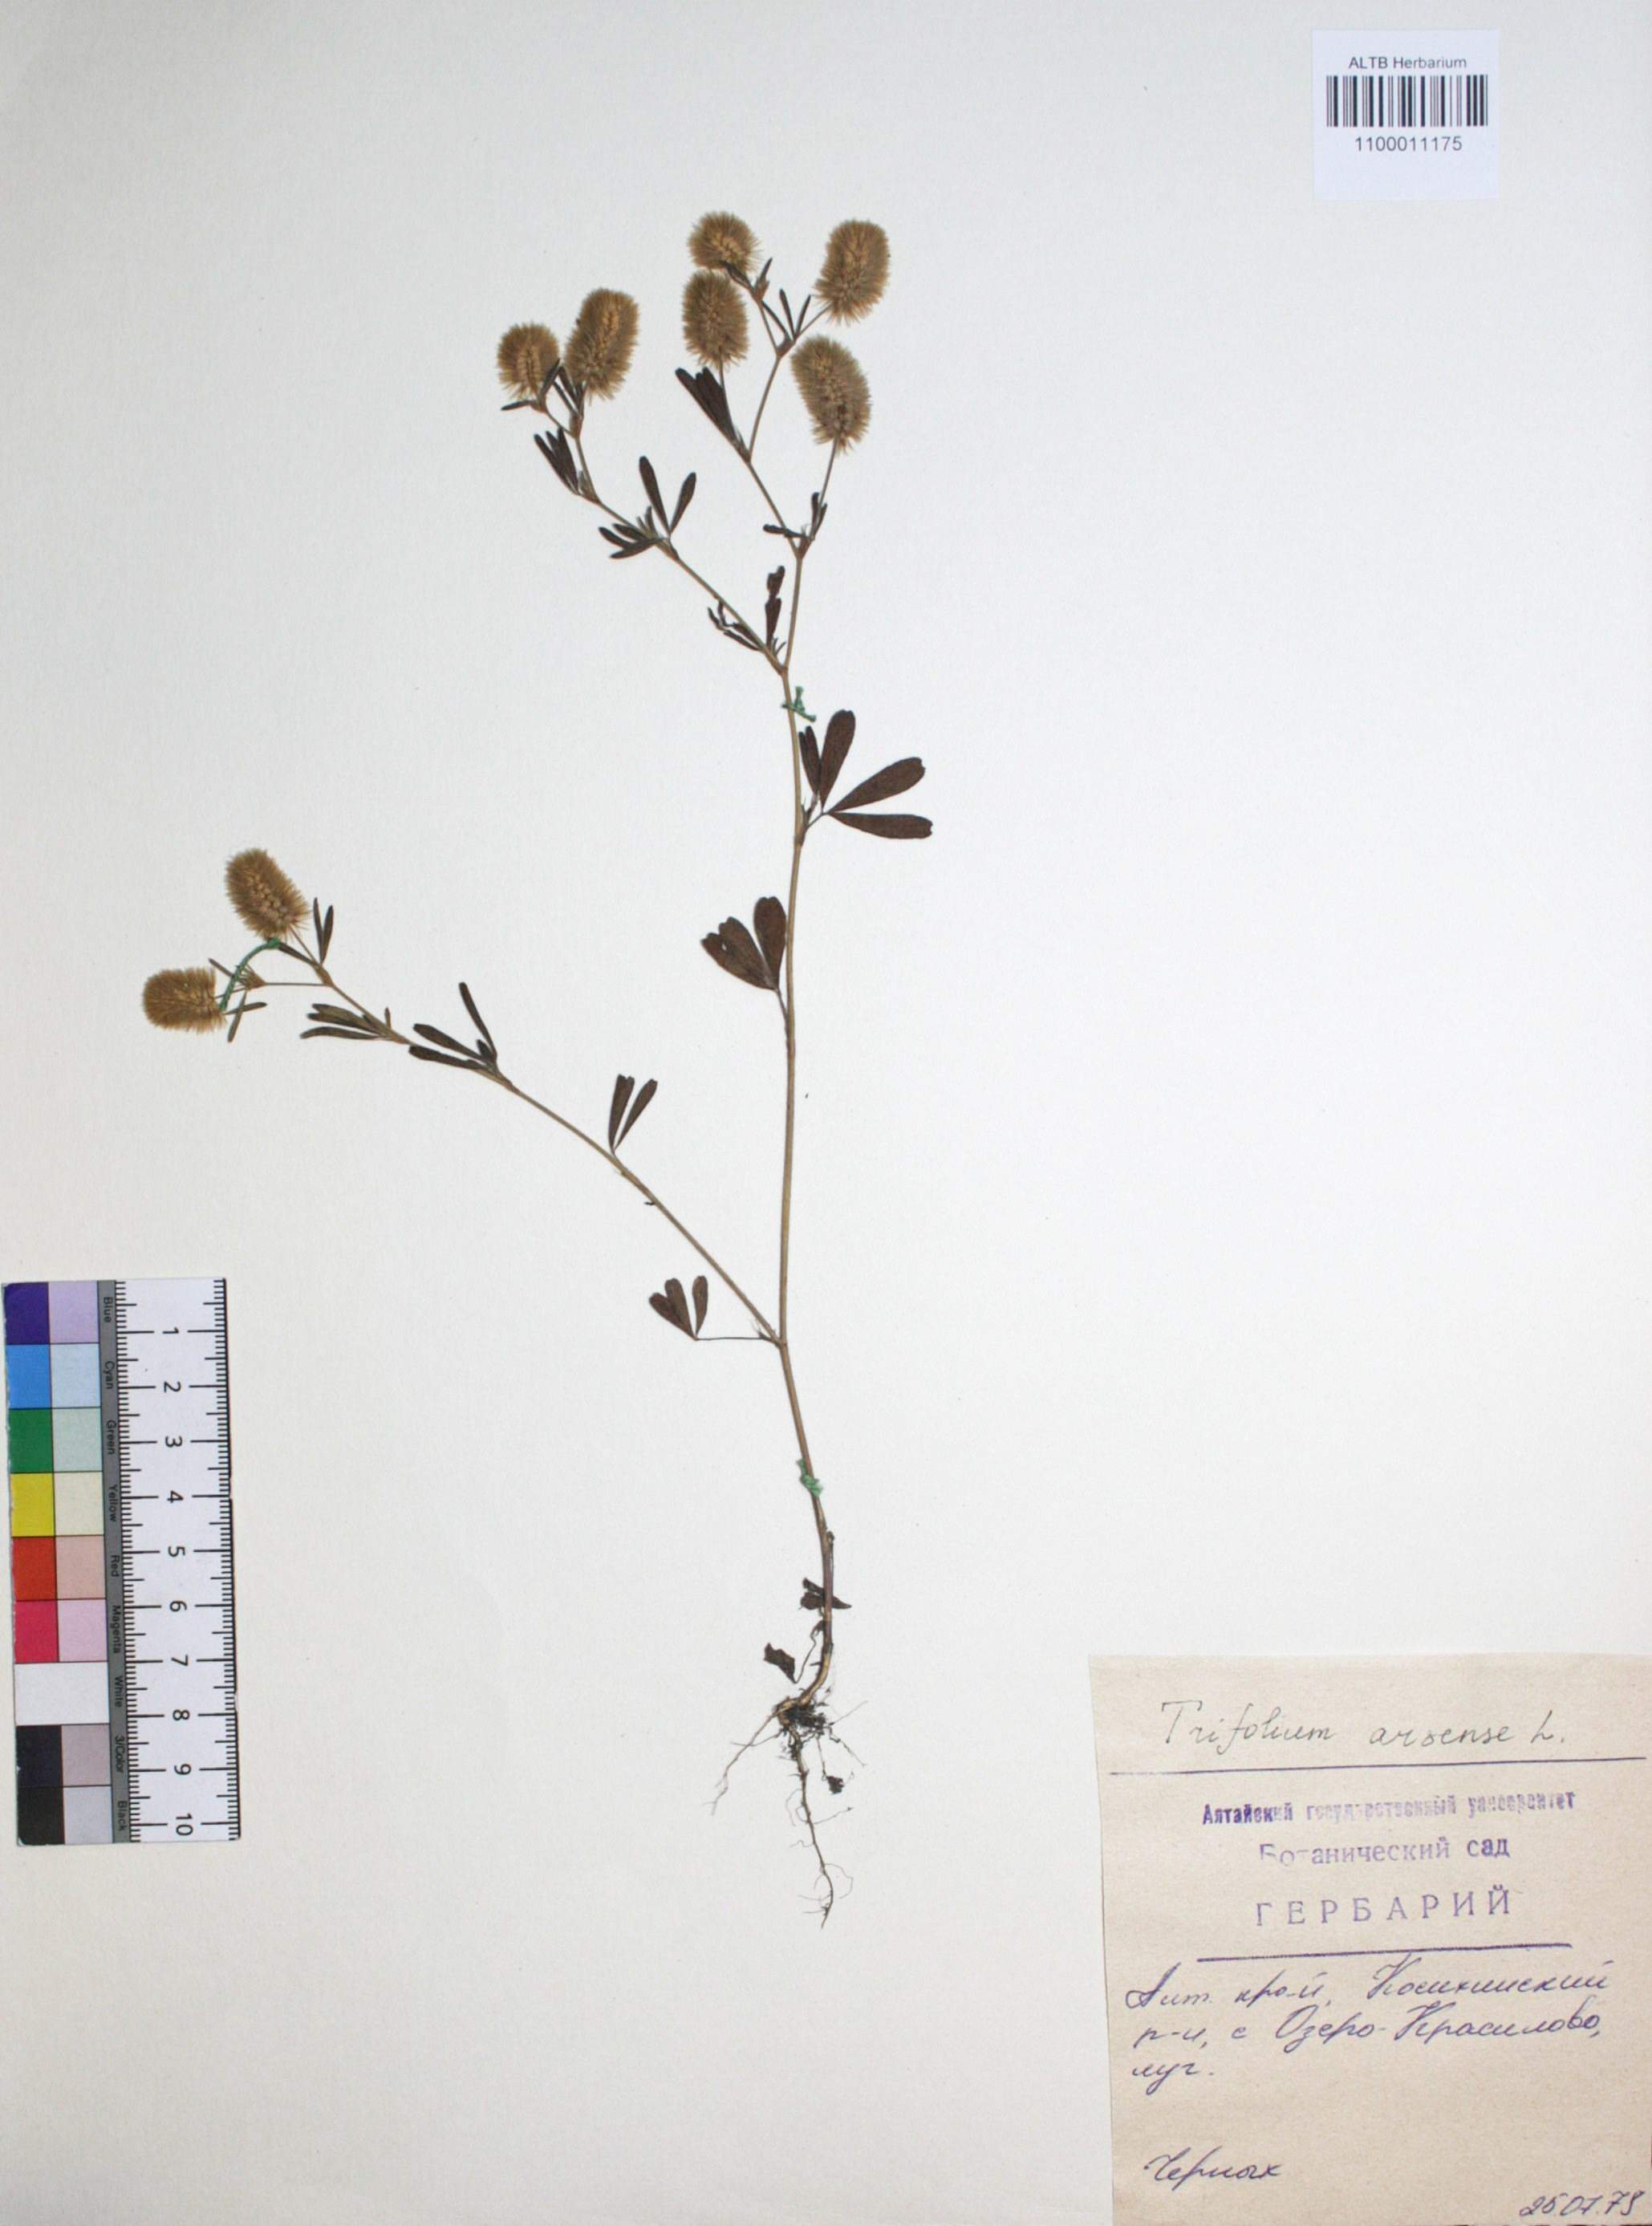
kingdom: Plantae
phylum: Tracheophyta
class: Magnoliopsida
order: Fabales
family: Fabaceae
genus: Trifolium
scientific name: Trifolium arvense
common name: Hare's-foot clover
